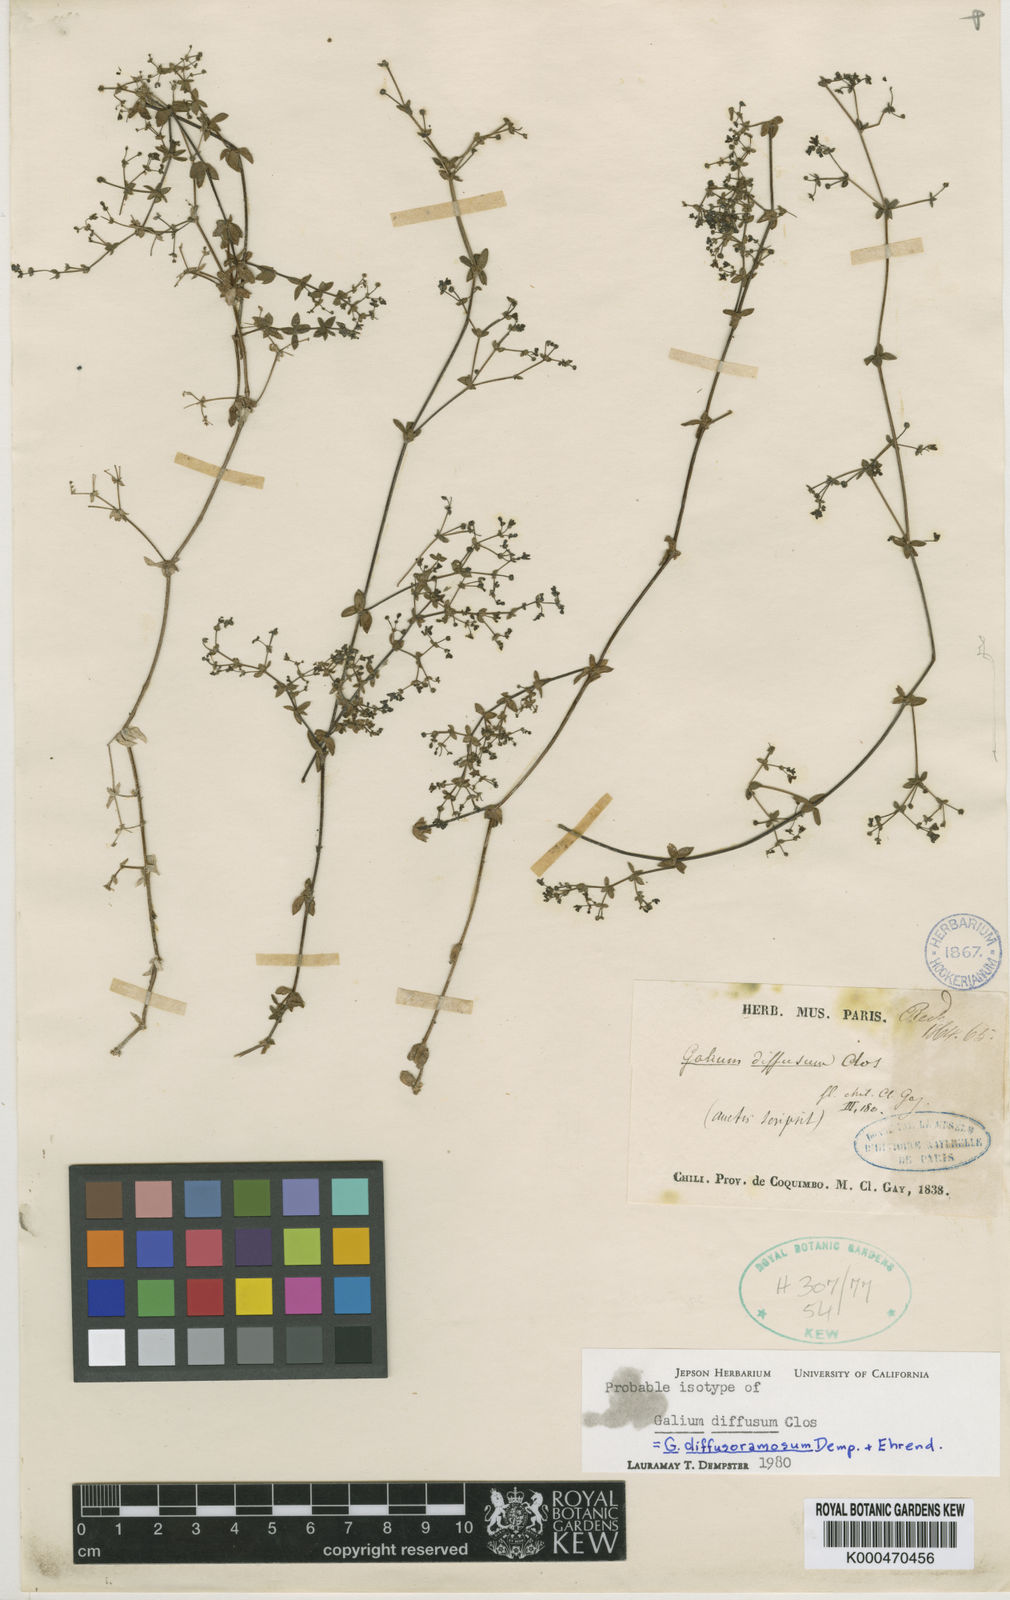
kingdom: Plantae
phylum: Tracheophyta
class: Magnoliopsida
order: Gentianales
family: Rubiaceae
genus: Galium
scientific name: Galium diffusoramosum
